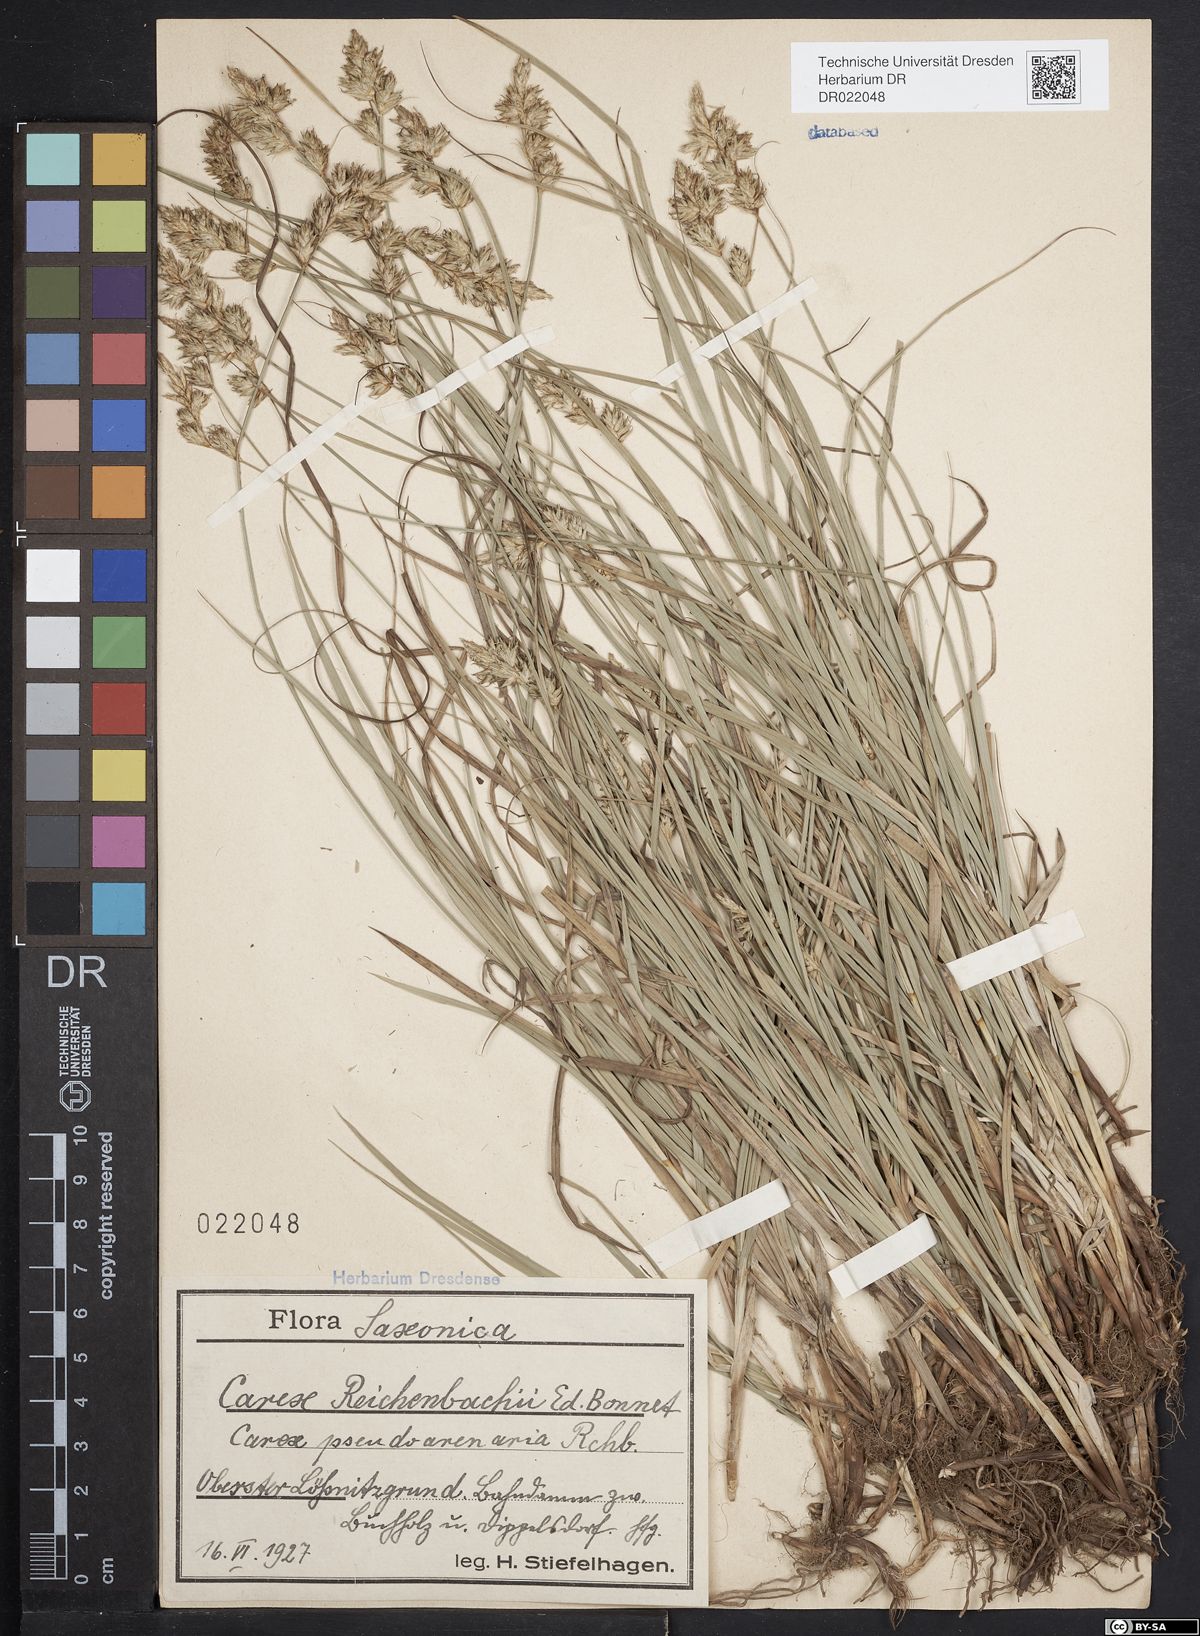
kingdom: Plantae
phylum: Tracheophyta
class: Liliopsida
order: Poales
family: Cyperaceae
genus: Carex
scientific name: Carex pseudobrizoides
